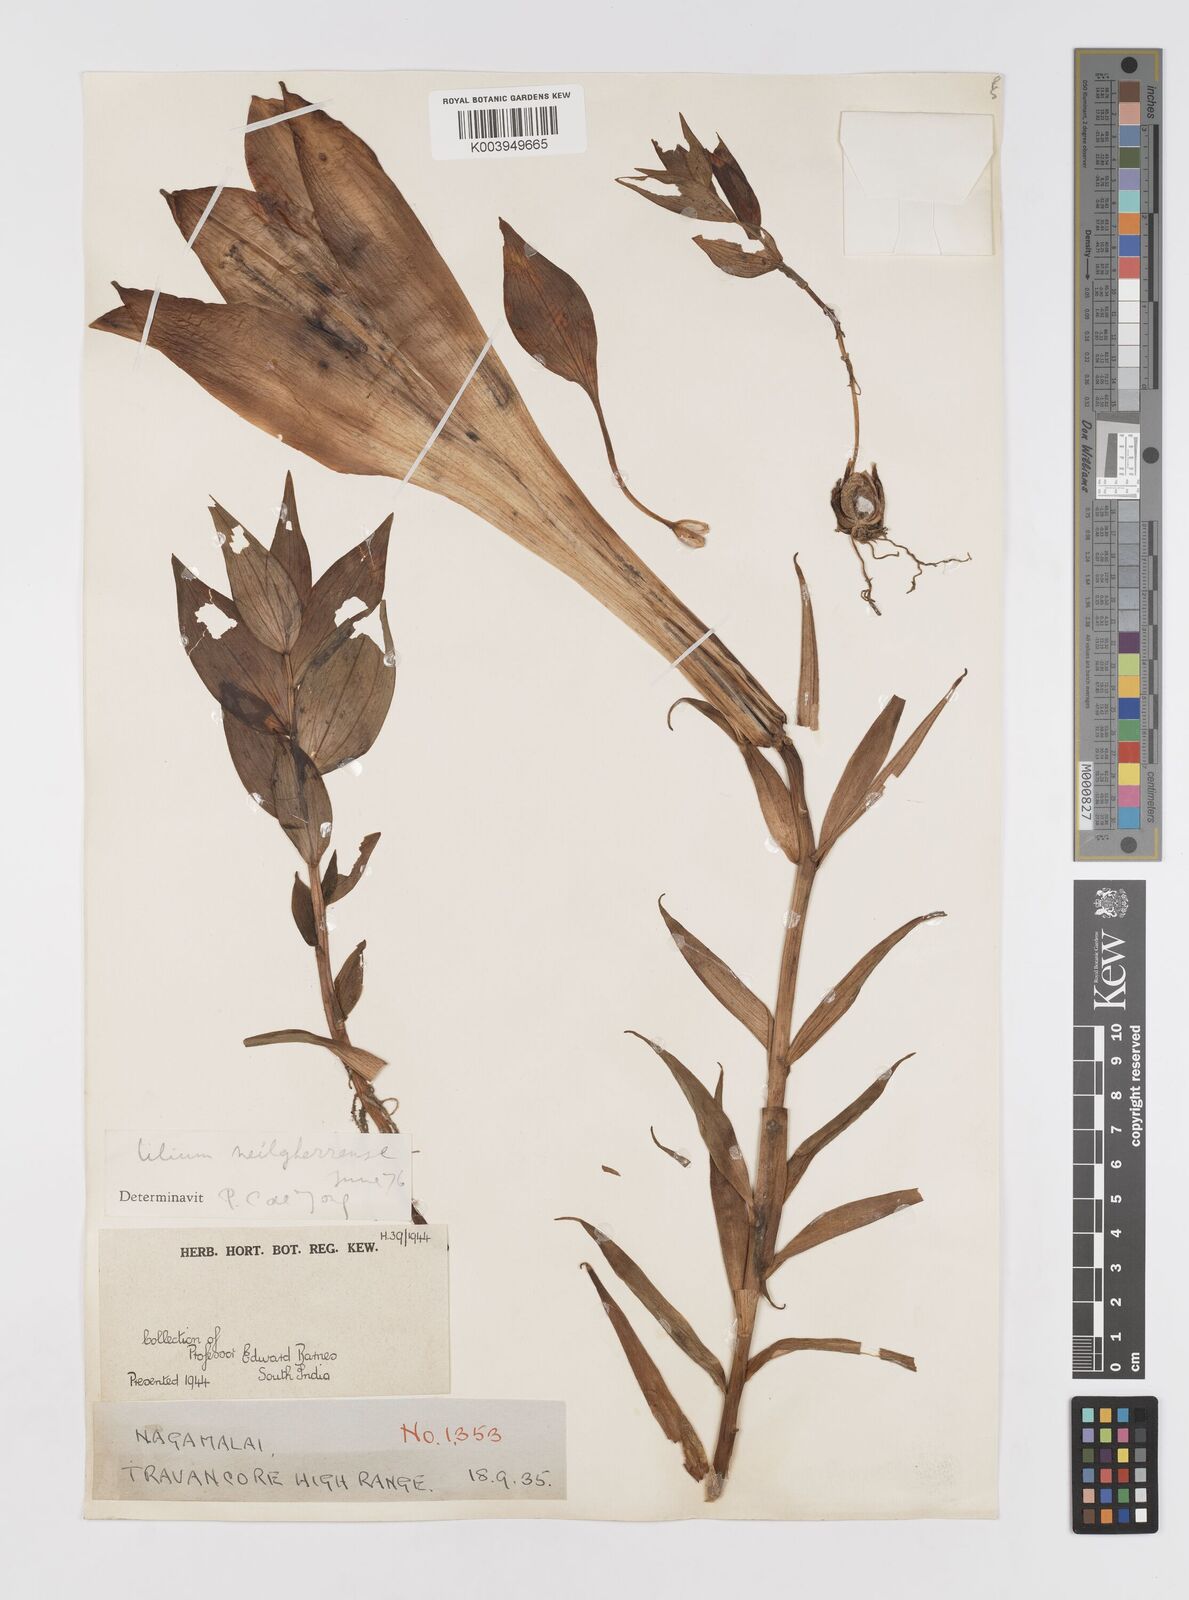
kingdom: Plantae
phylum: Tracheophyta
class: Liliopsida
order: Liliales
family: Liliaceae
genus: Lilium
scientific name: Lilium wallichianum
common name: Wallich's lily
